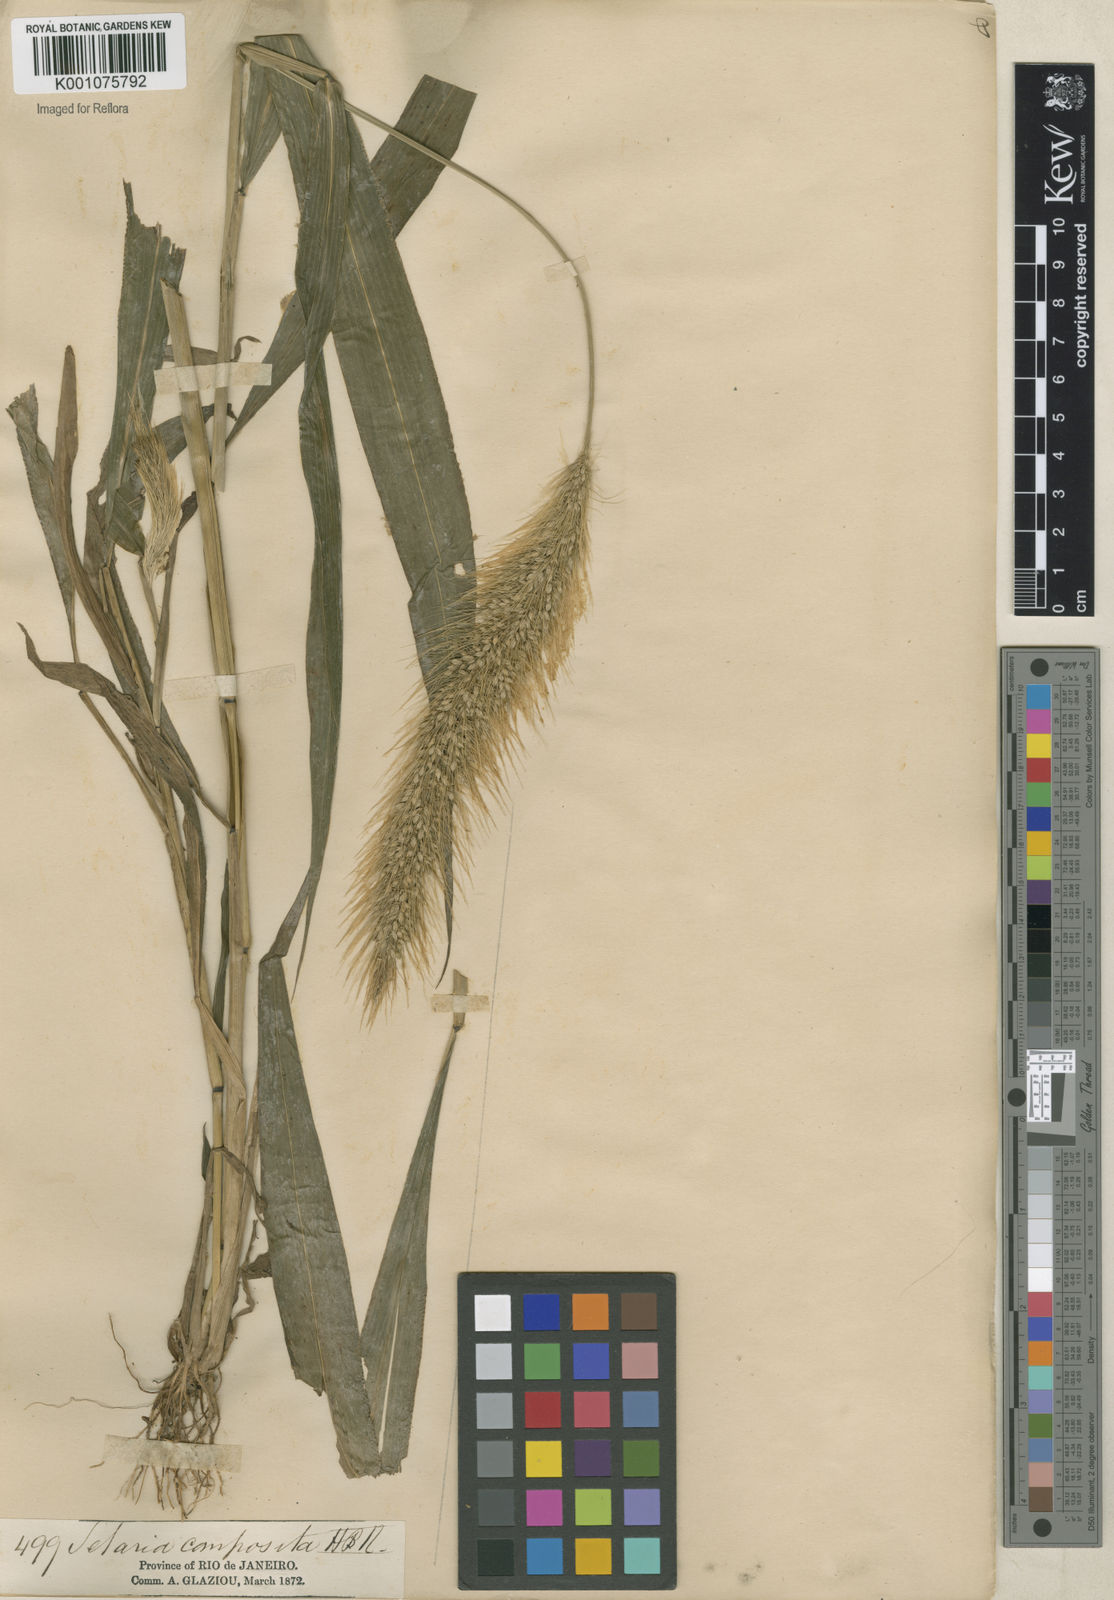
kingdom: Plantae
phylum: Tracheophyta
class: Liliopsida
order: Poales
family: Poaceae
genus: Setaria
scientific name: Setaria vulpiseta
